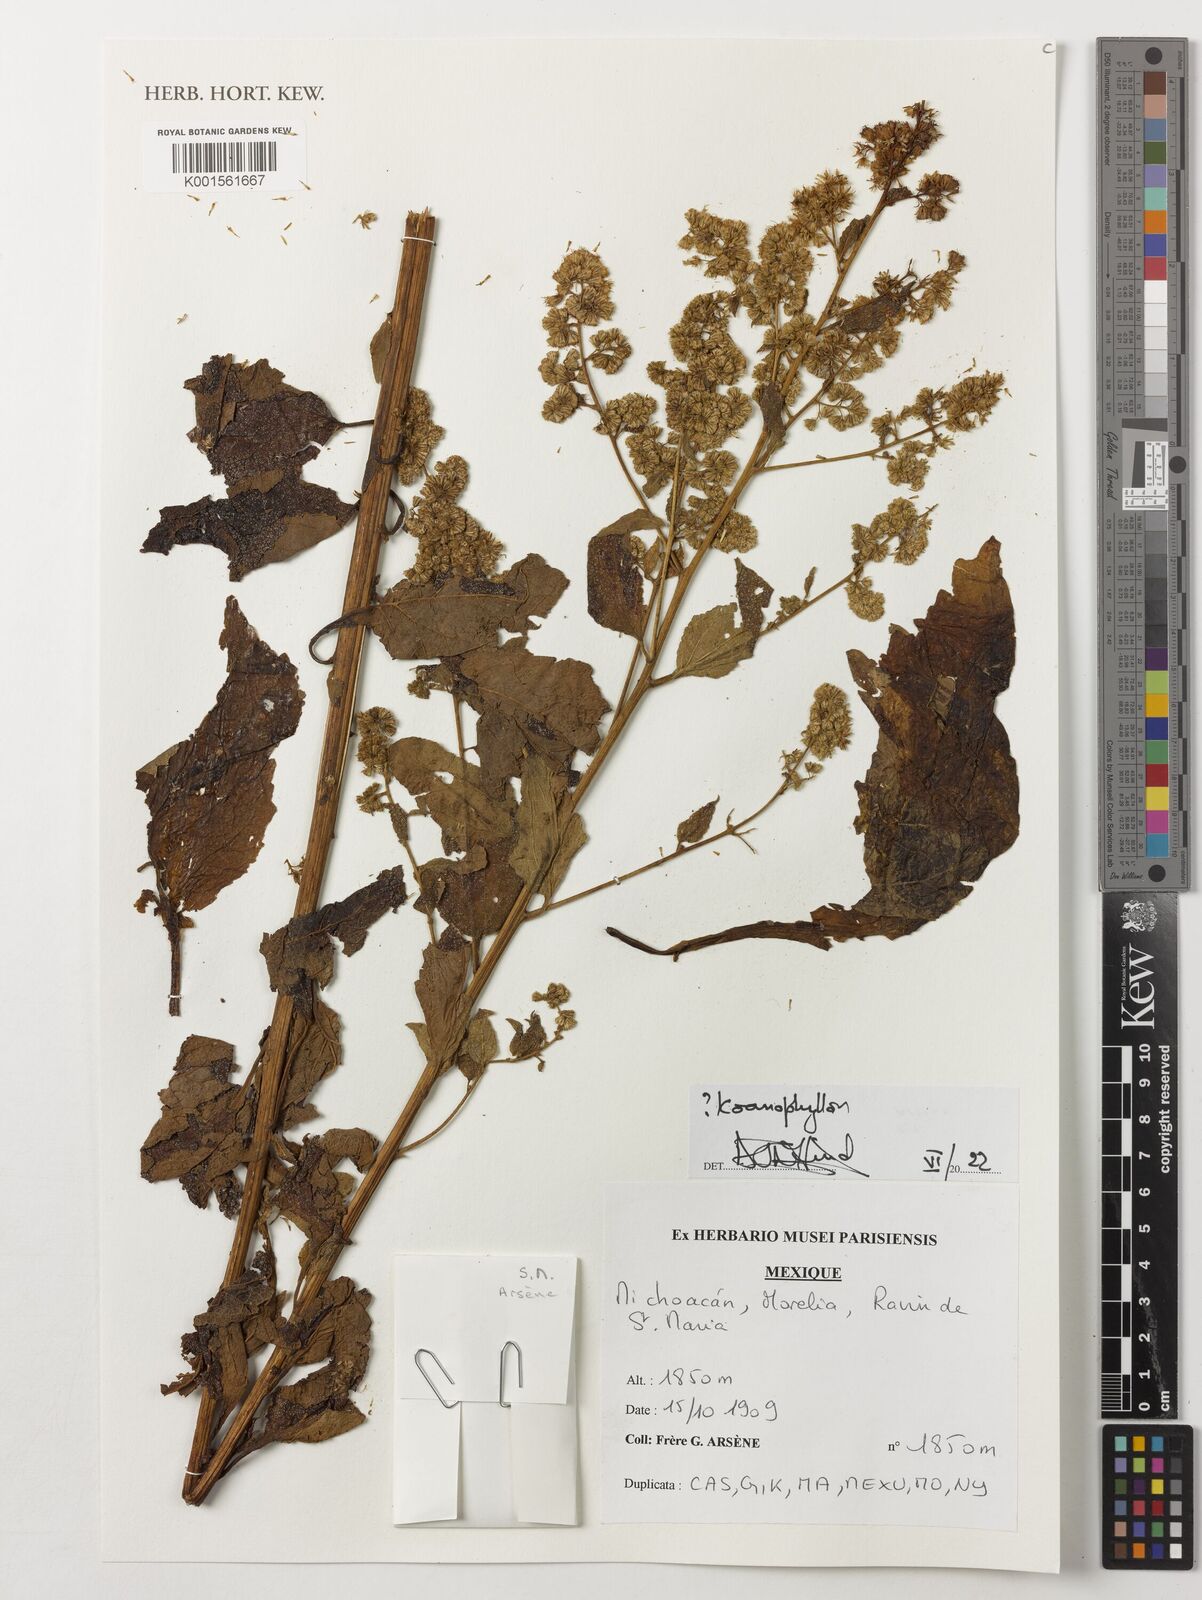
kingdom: Plantae
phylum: Tracheophyta
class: Magnoliopsida
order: Asterales
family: Asteraceae
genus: Koanophyllon
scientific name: Koanophyllon
